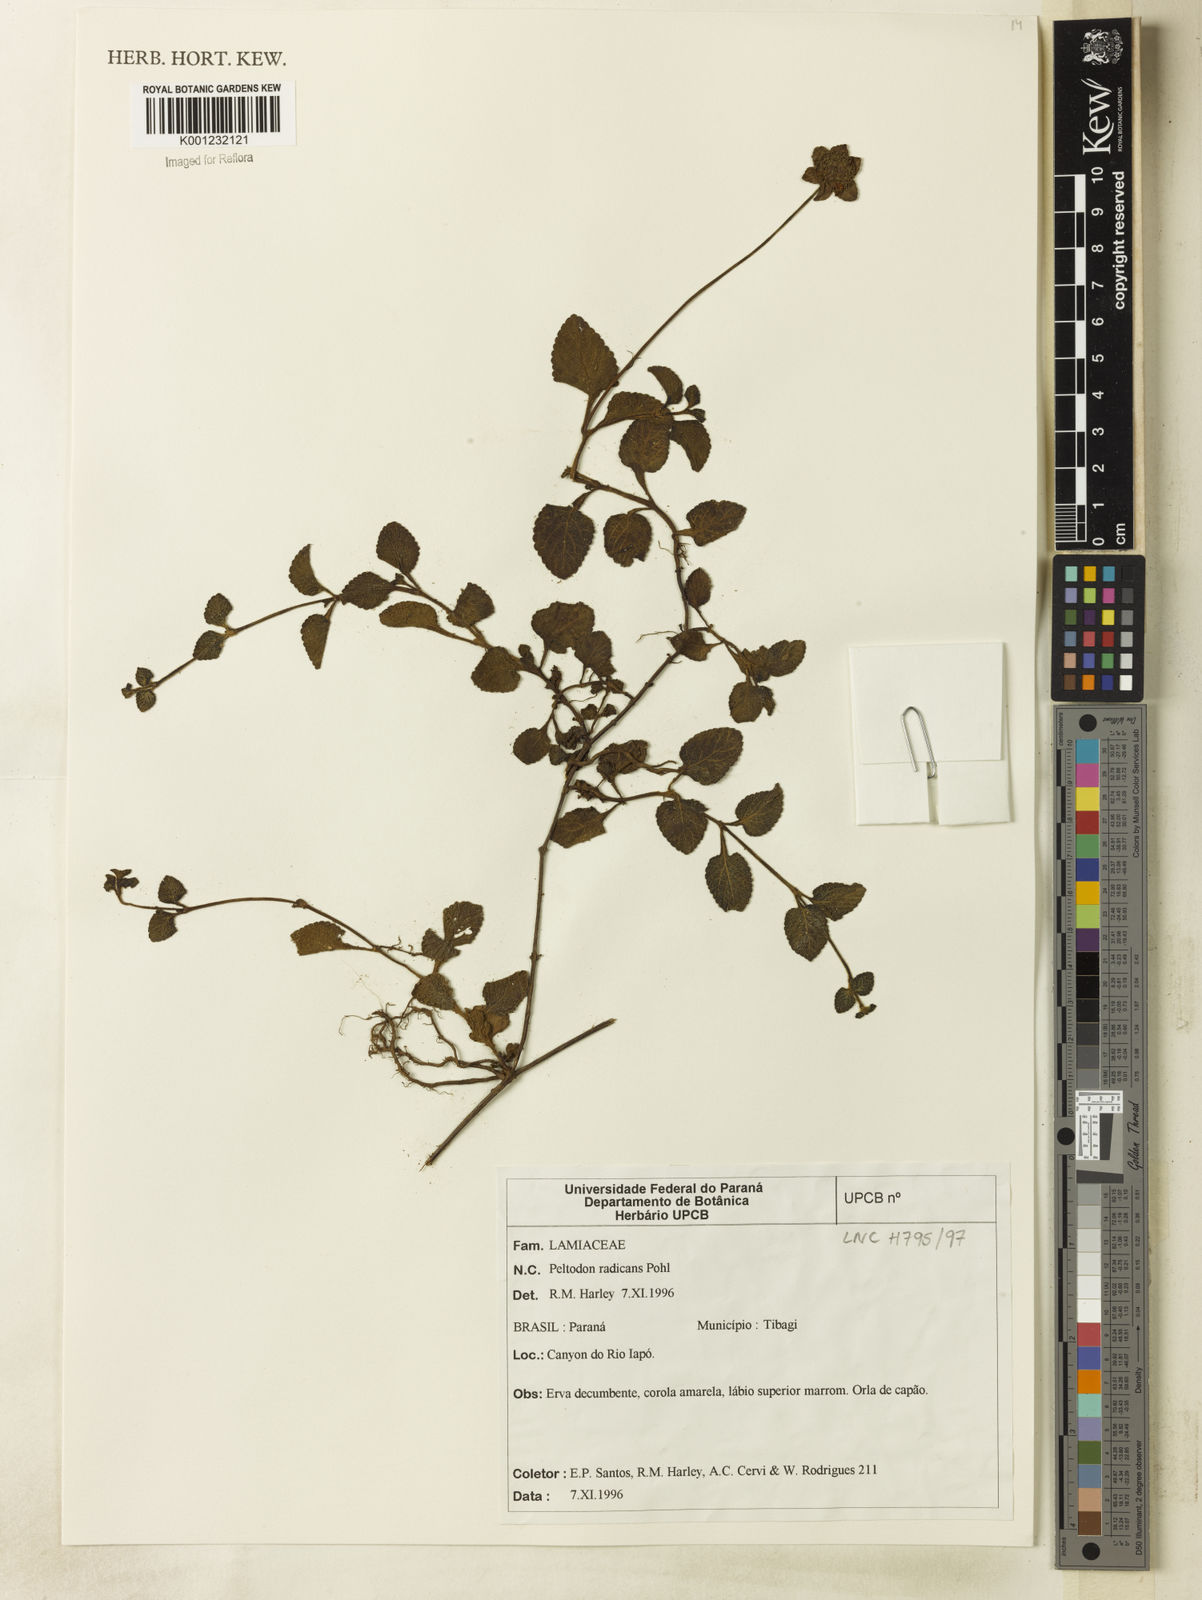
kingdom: Plantae
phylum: Tracheophyta
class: Magnoliopsida
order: Lamiales
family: Lamiaceae
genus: Hyptis
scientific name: Hyptis radicans
